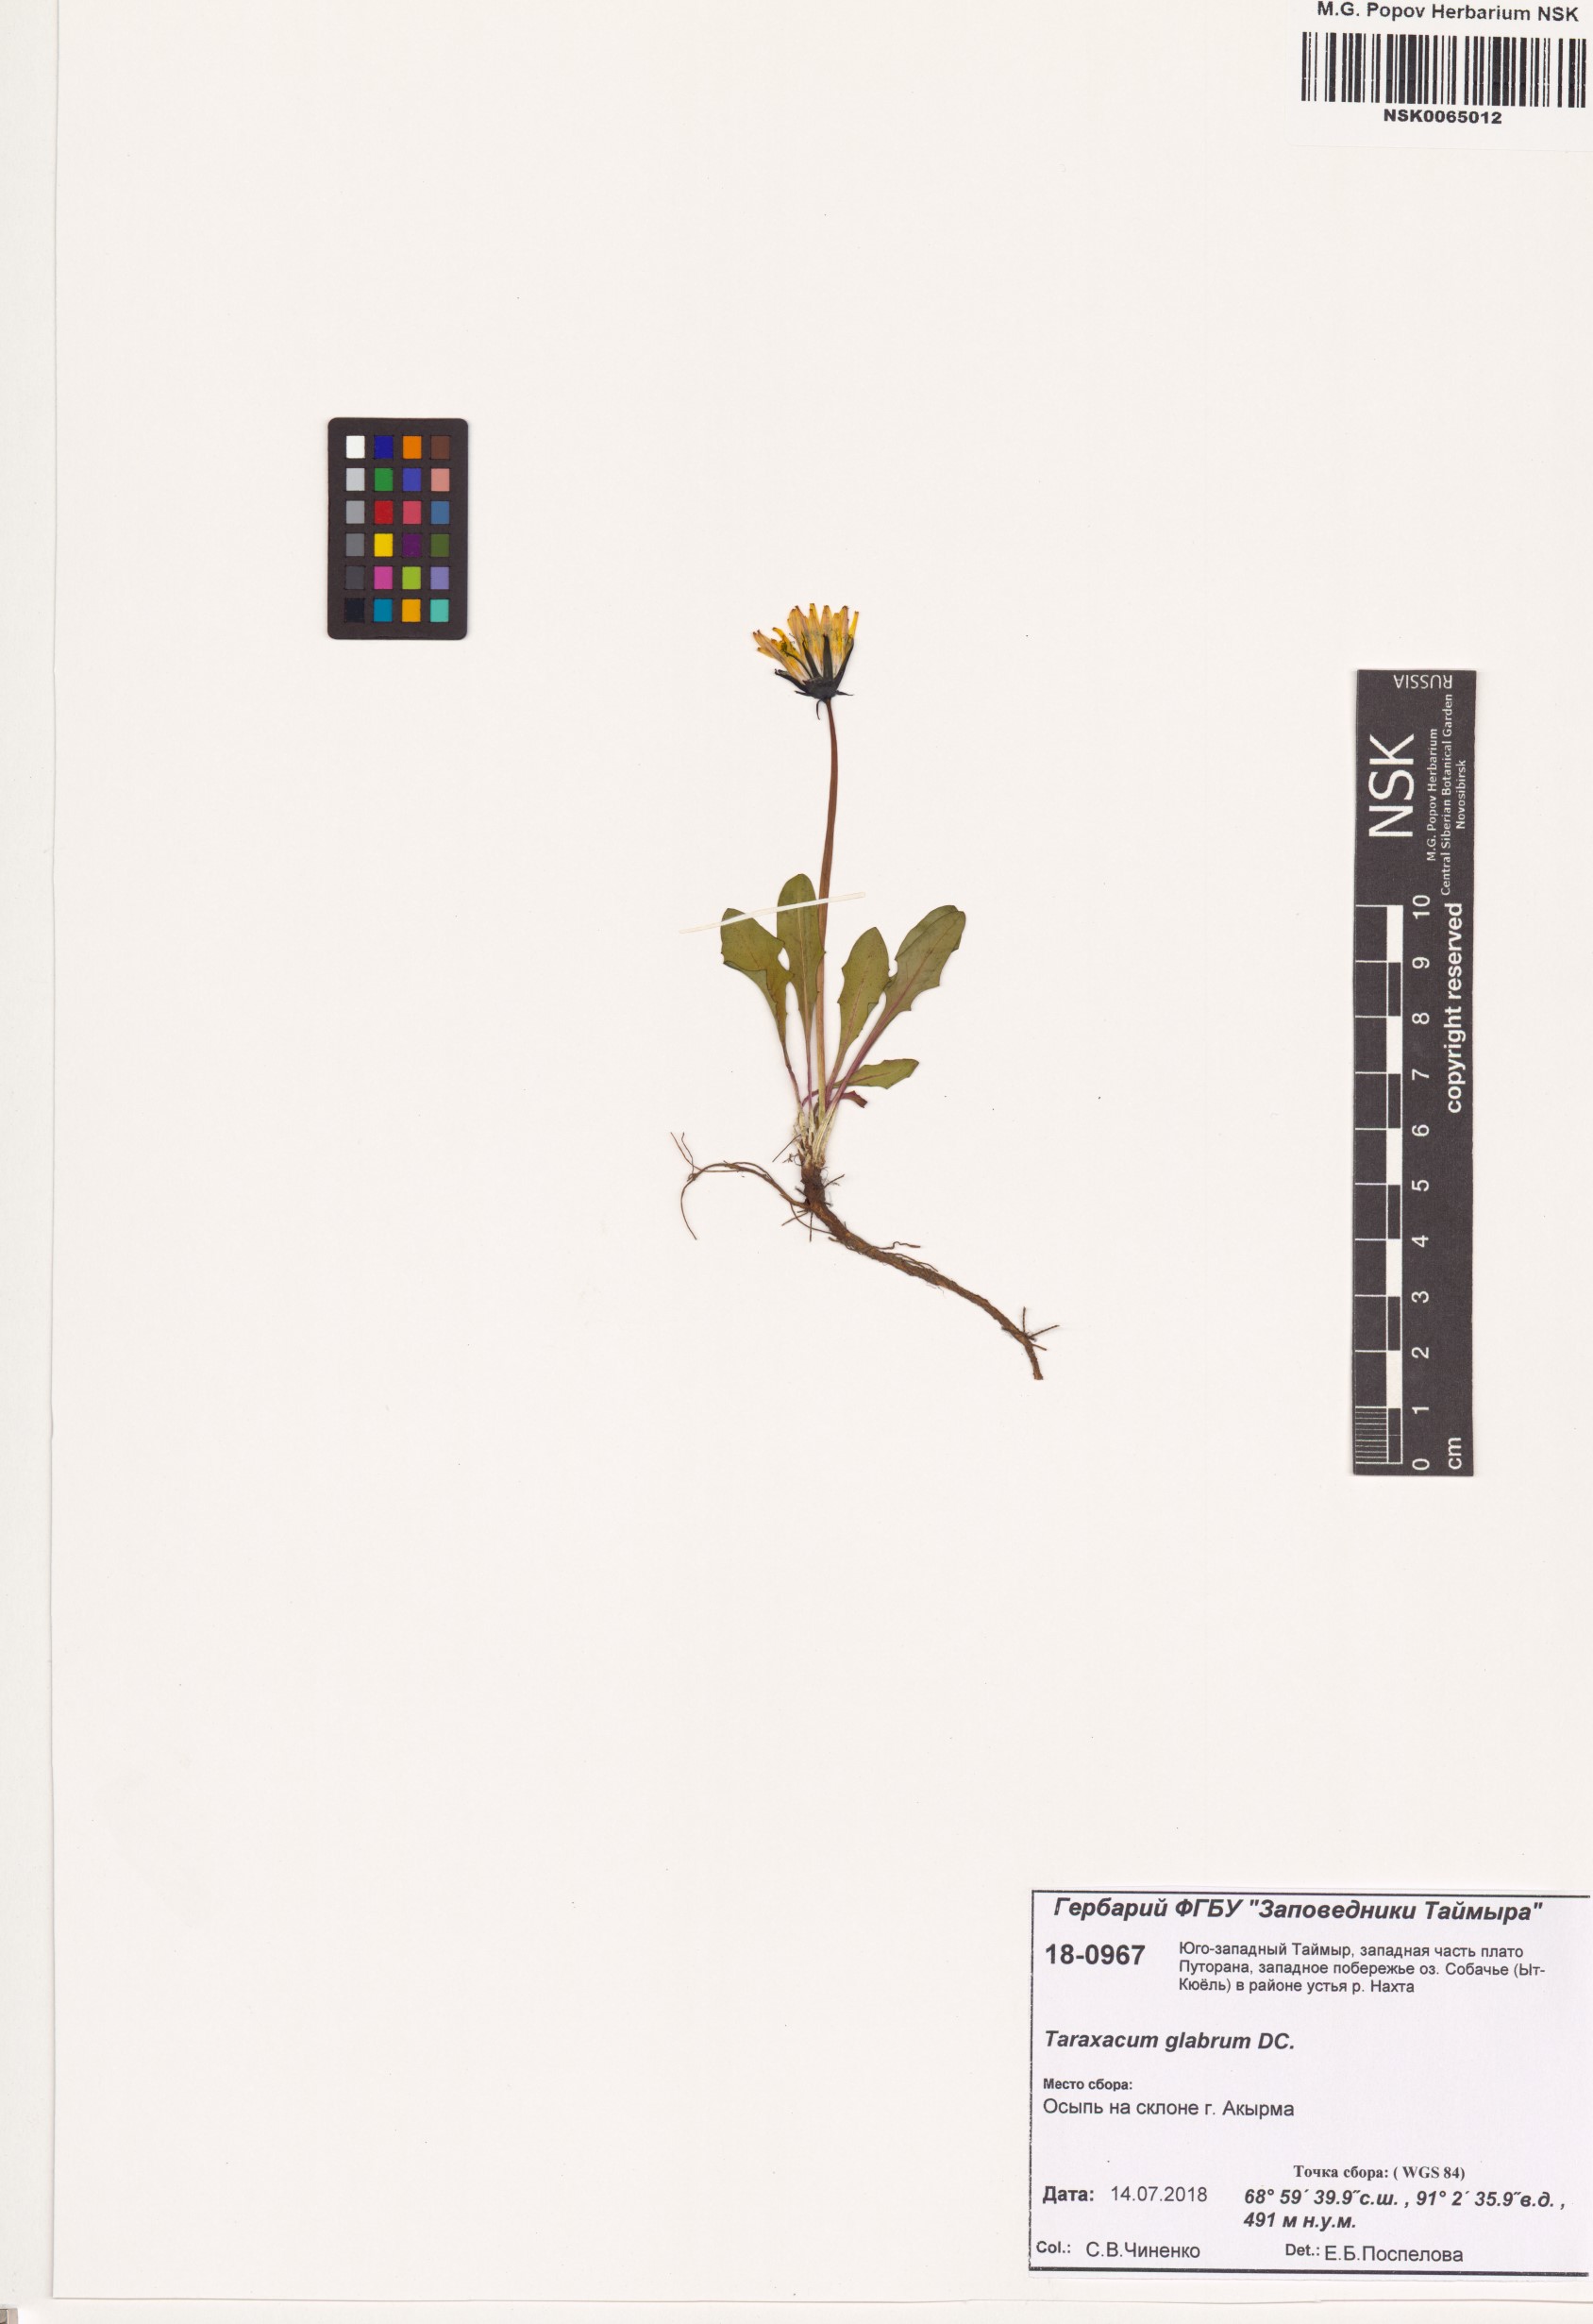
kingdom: Plantae
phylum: Tracheophyta
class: Magnoliopsida
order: Asterales
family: Asteraceae
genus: Taraxacum
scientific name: Taraxacum glabrum
